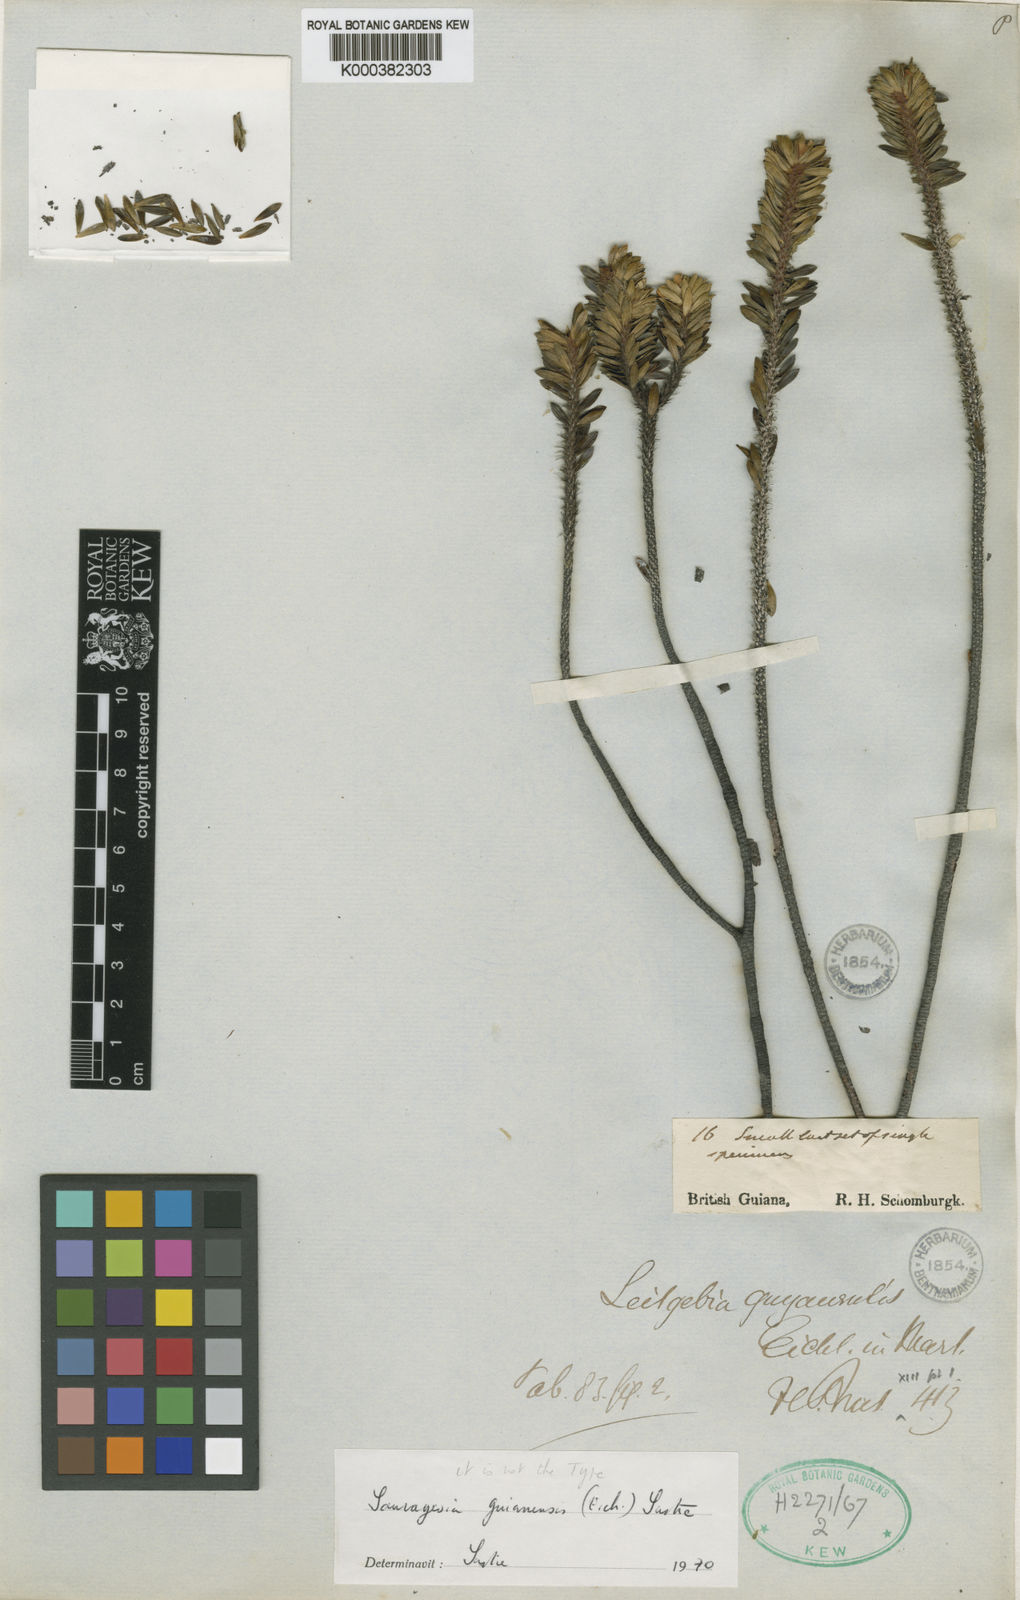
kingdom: Plantae
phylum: Tracheophyta
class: Magnoliopsida
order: Malpighiales
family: Ochnaceae
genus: Sauvagesia
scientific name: Sauvagesia guianensis
